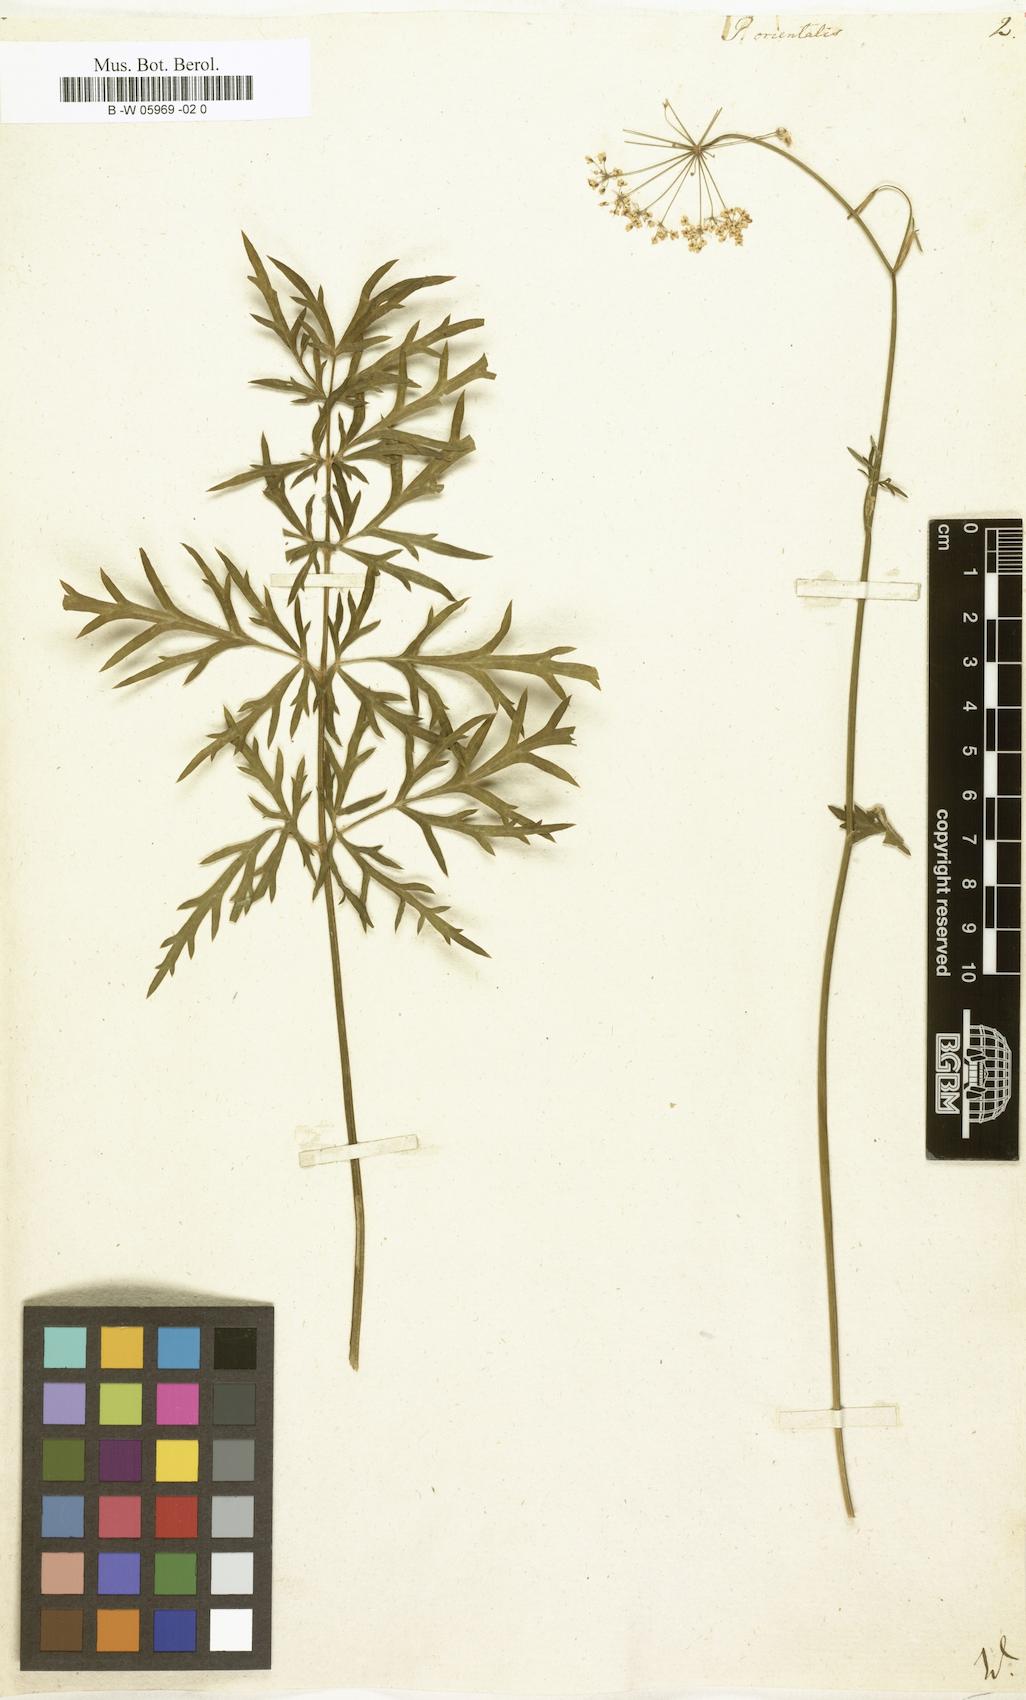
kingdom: Plantae
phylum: Tracheophyta
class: Magnoliopsida
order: Apiales
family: Apiaceae
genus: Pimpinella
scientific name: Pimpinella major
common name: Greater burnet-saxifrage
